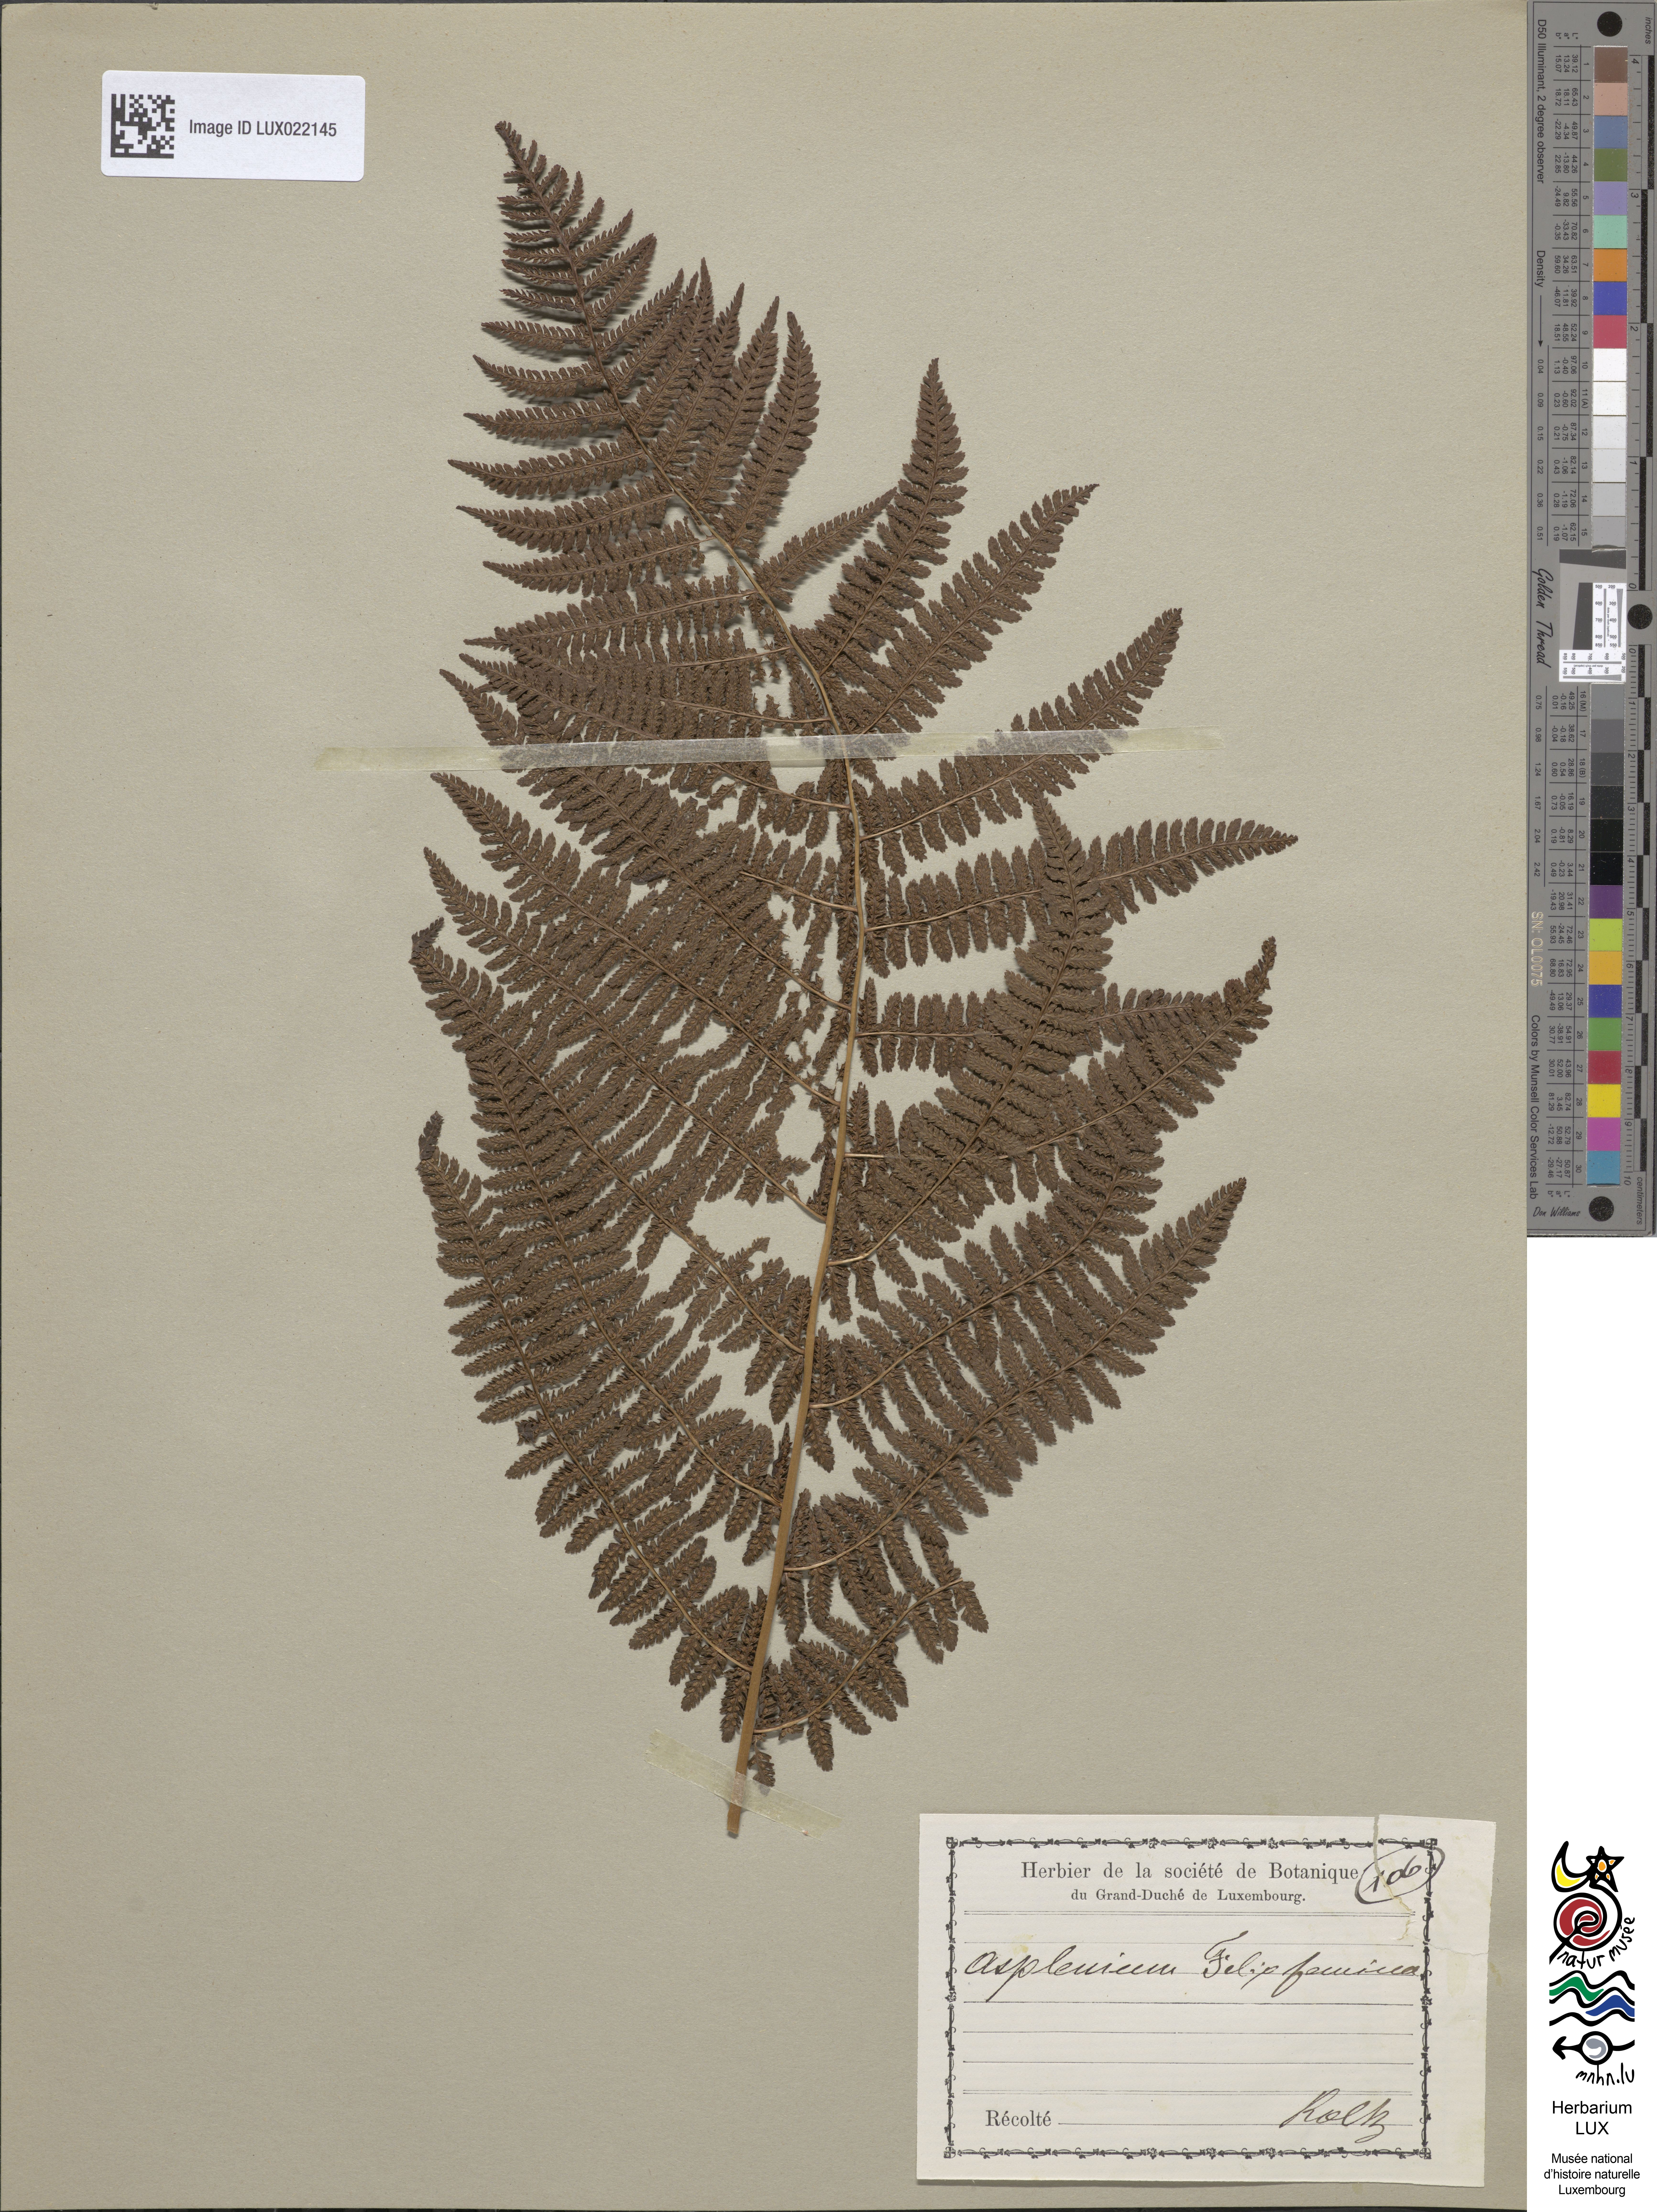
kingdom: Plantae
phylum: Tracheophyta
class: Polypodiopsida
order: Polypodiales
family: Athyriaceae
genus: Athyrium
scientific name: Athyrium filix-femina
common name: Lady fern
